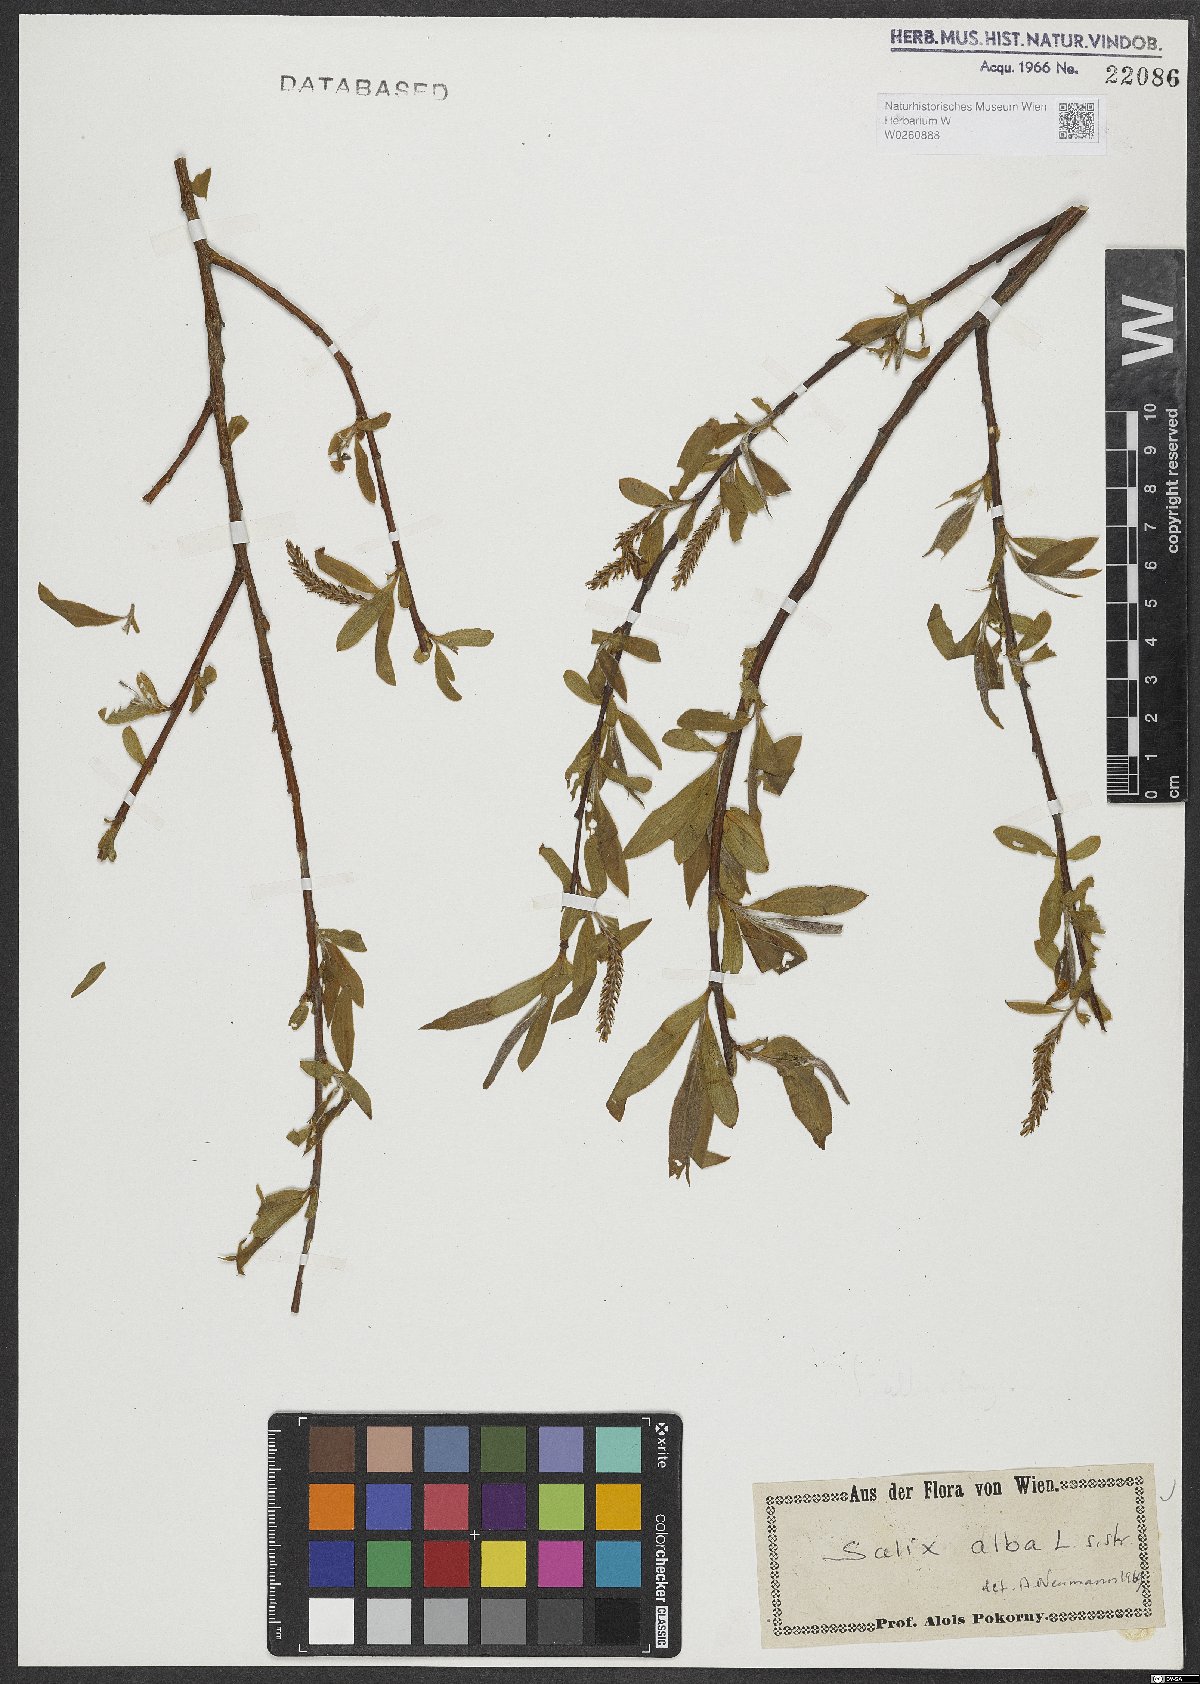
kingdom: Plantae
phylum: Tracheophyta
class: Magnoliopsida
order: Malpighiales
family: Salicaceae
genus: Salix
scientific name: Salix alba
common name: White willow
